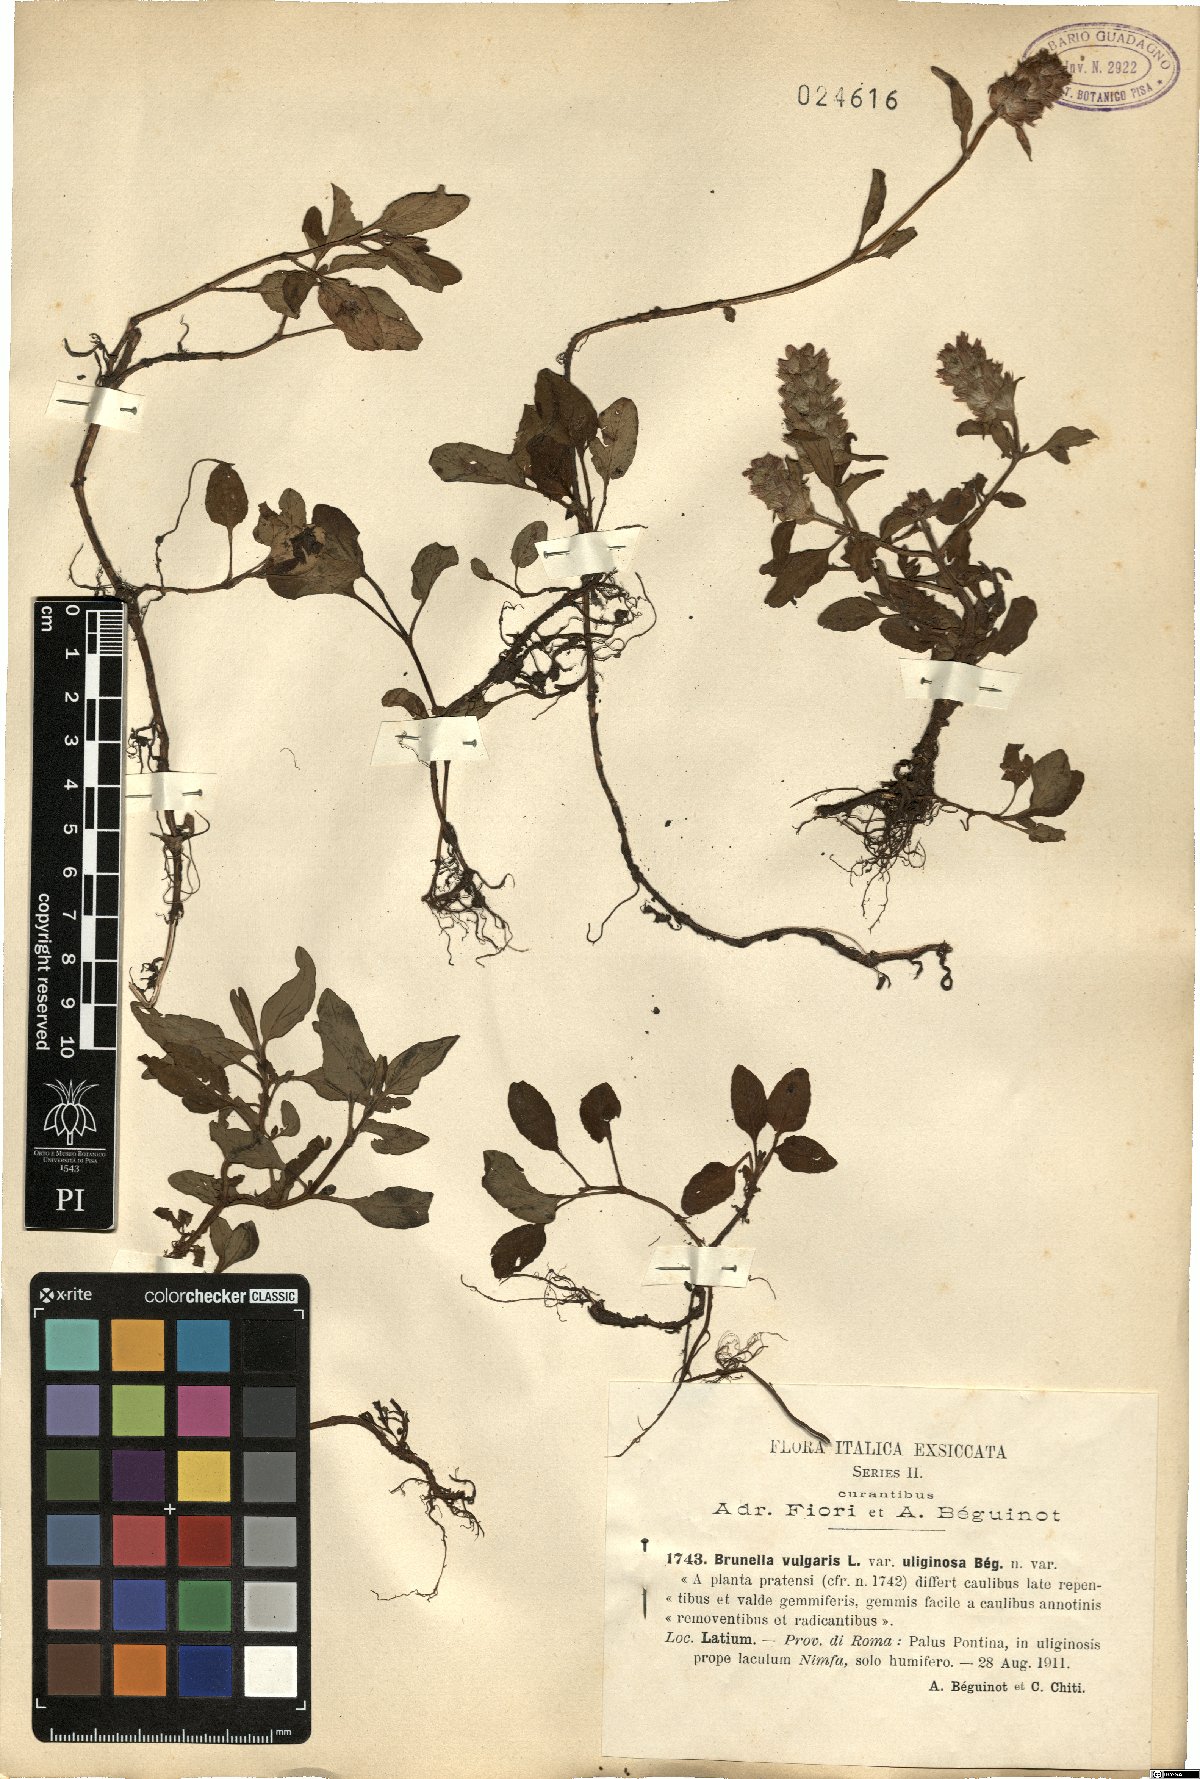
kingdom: Plantae
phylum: Tracheophyta
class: Magnoliopsida
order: Lamiales
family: Lamiaceae
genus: Prunella
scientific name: Prunella vulgaris
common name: Heal-all
